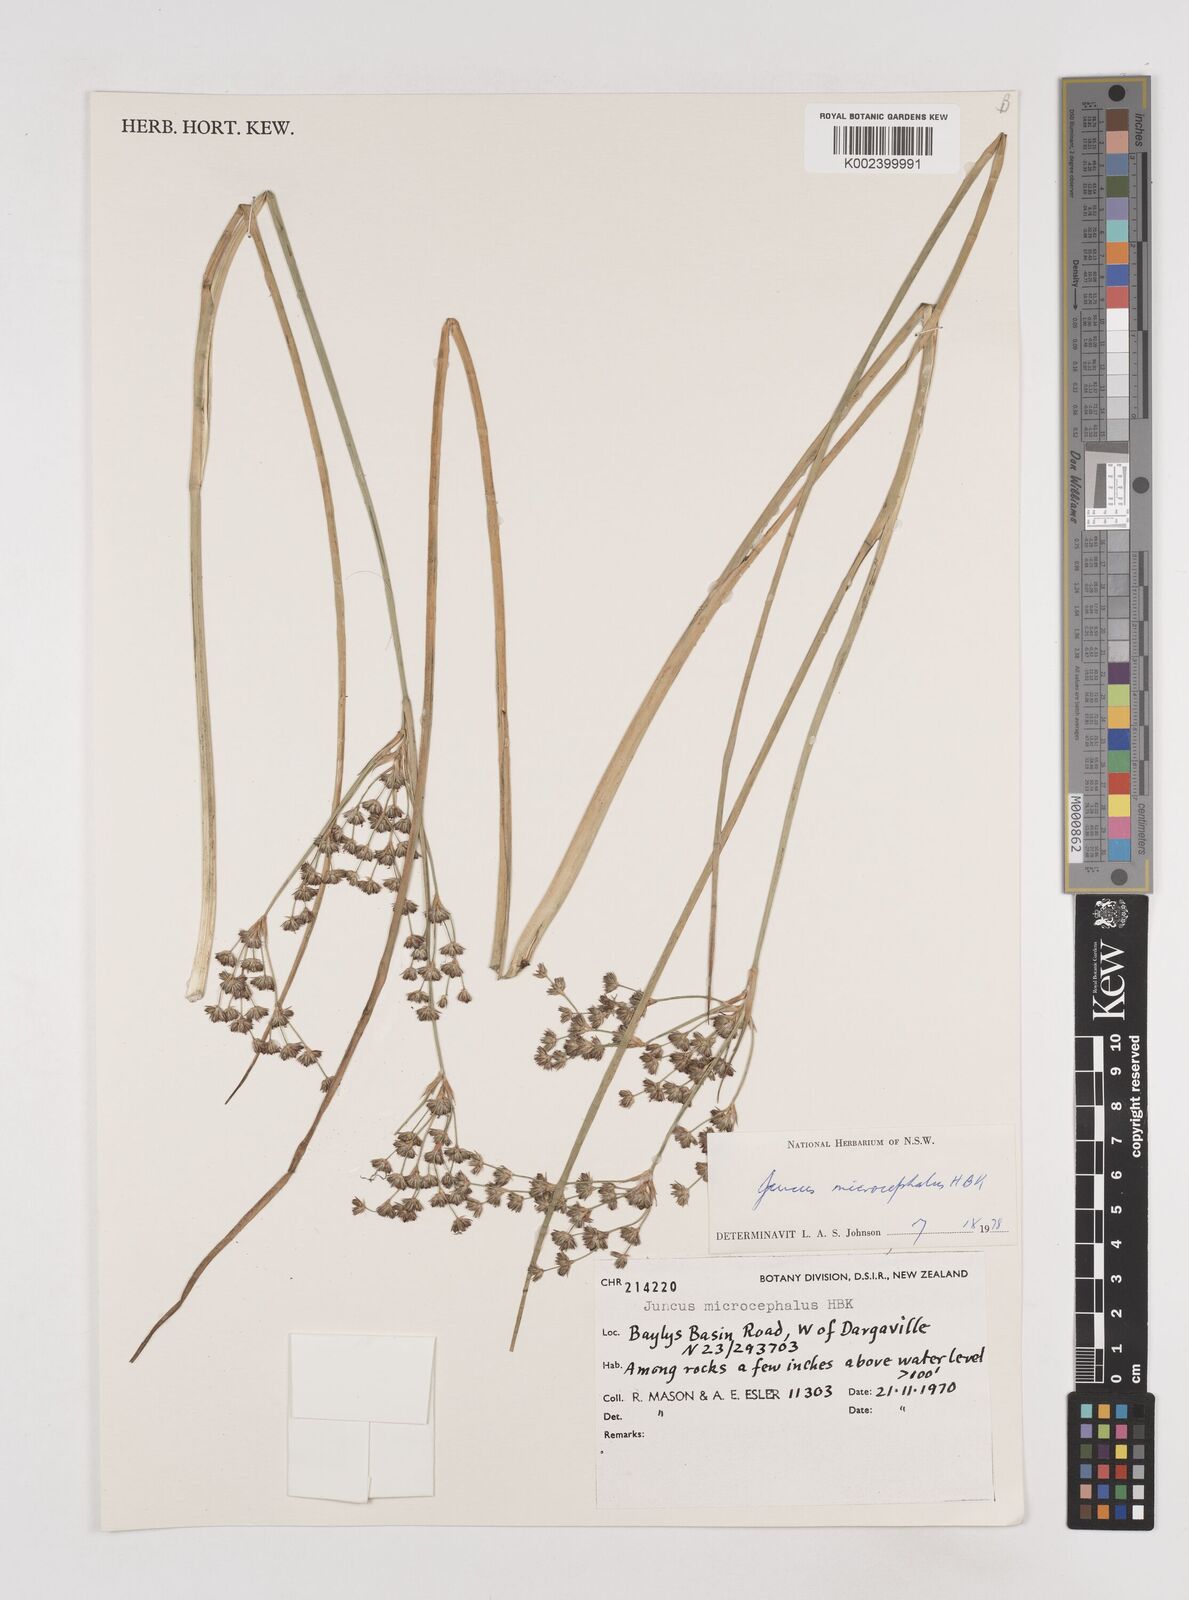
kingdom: Plantae
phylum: Tracheophyta
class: Liliopsida
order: Poales
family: Juncaceae
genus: Juncus
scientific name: Juncus microcephalus
